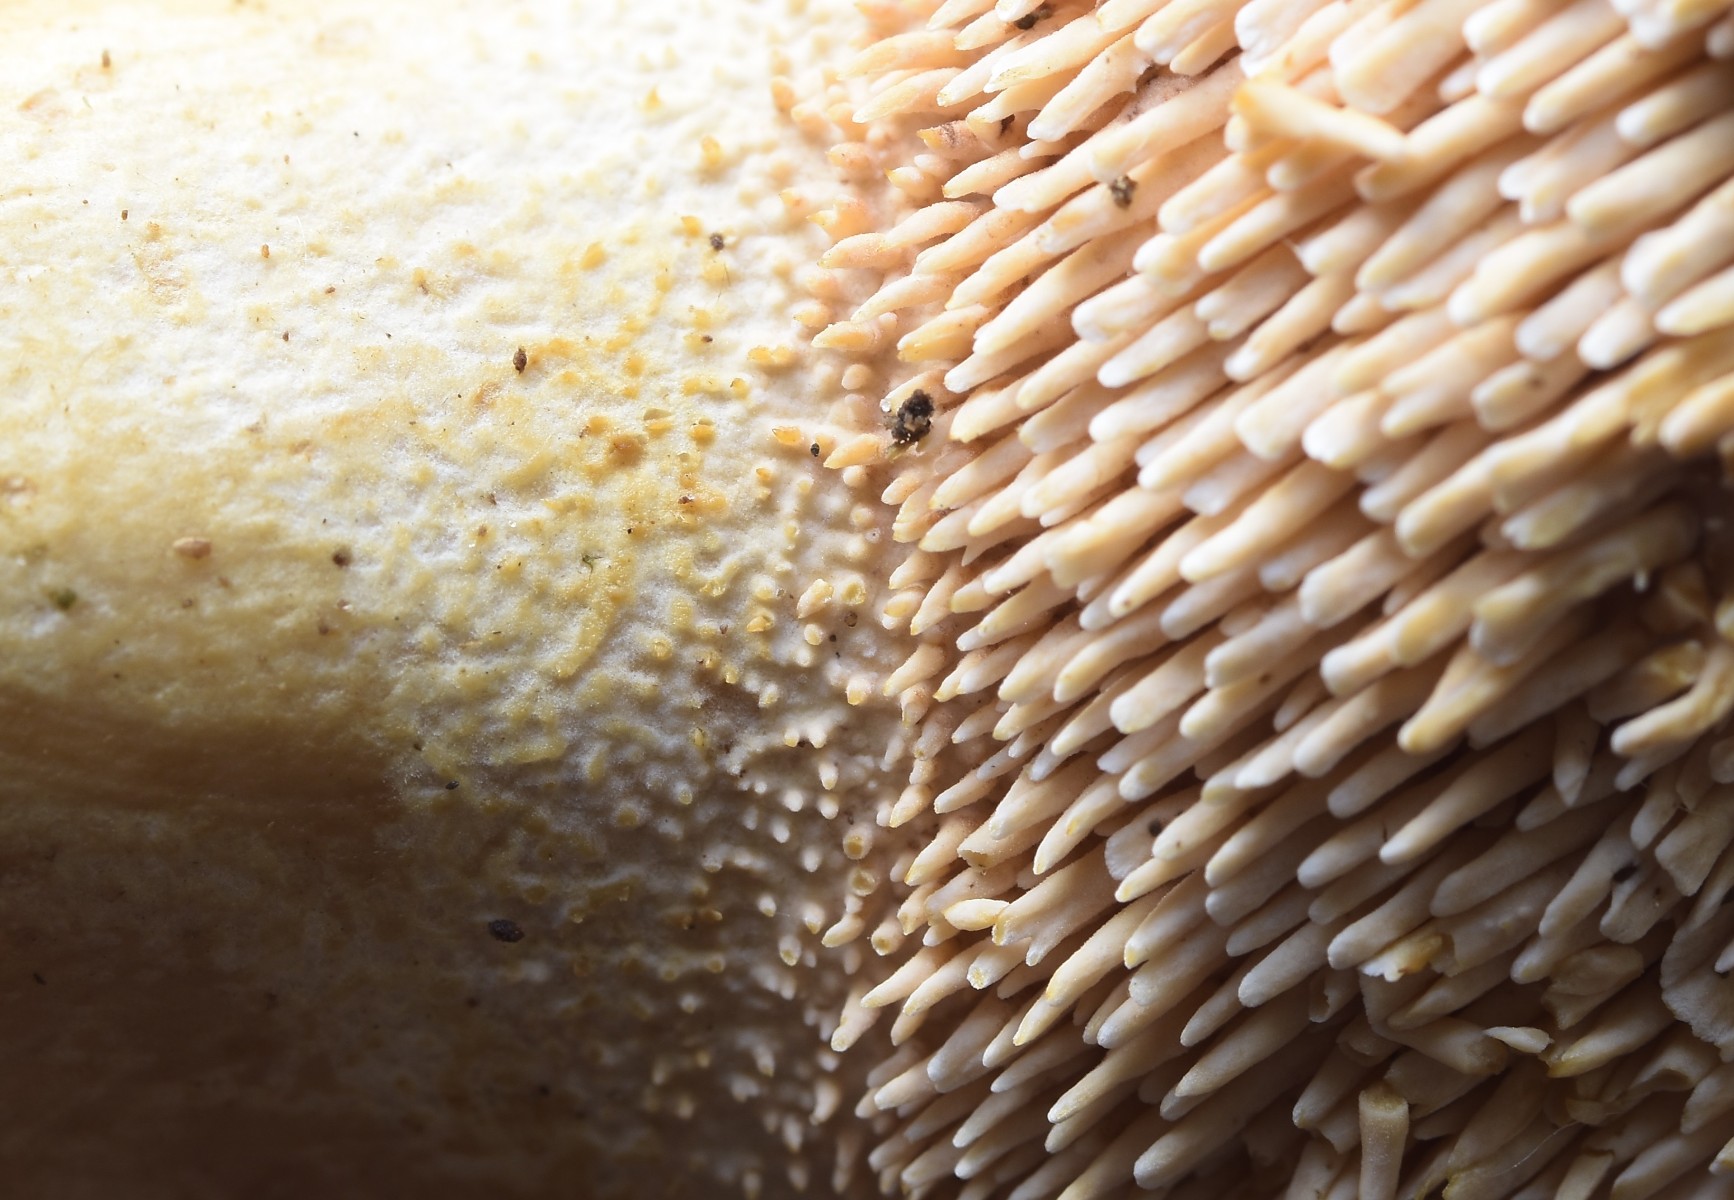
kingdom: Fungi
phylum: Basidiomycota
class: Agaricomycetes
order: Cantharellales
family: Hydnaceae
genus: Hydnum
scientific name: Hydnum ellipsosporum
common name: tandet pigsvamp
